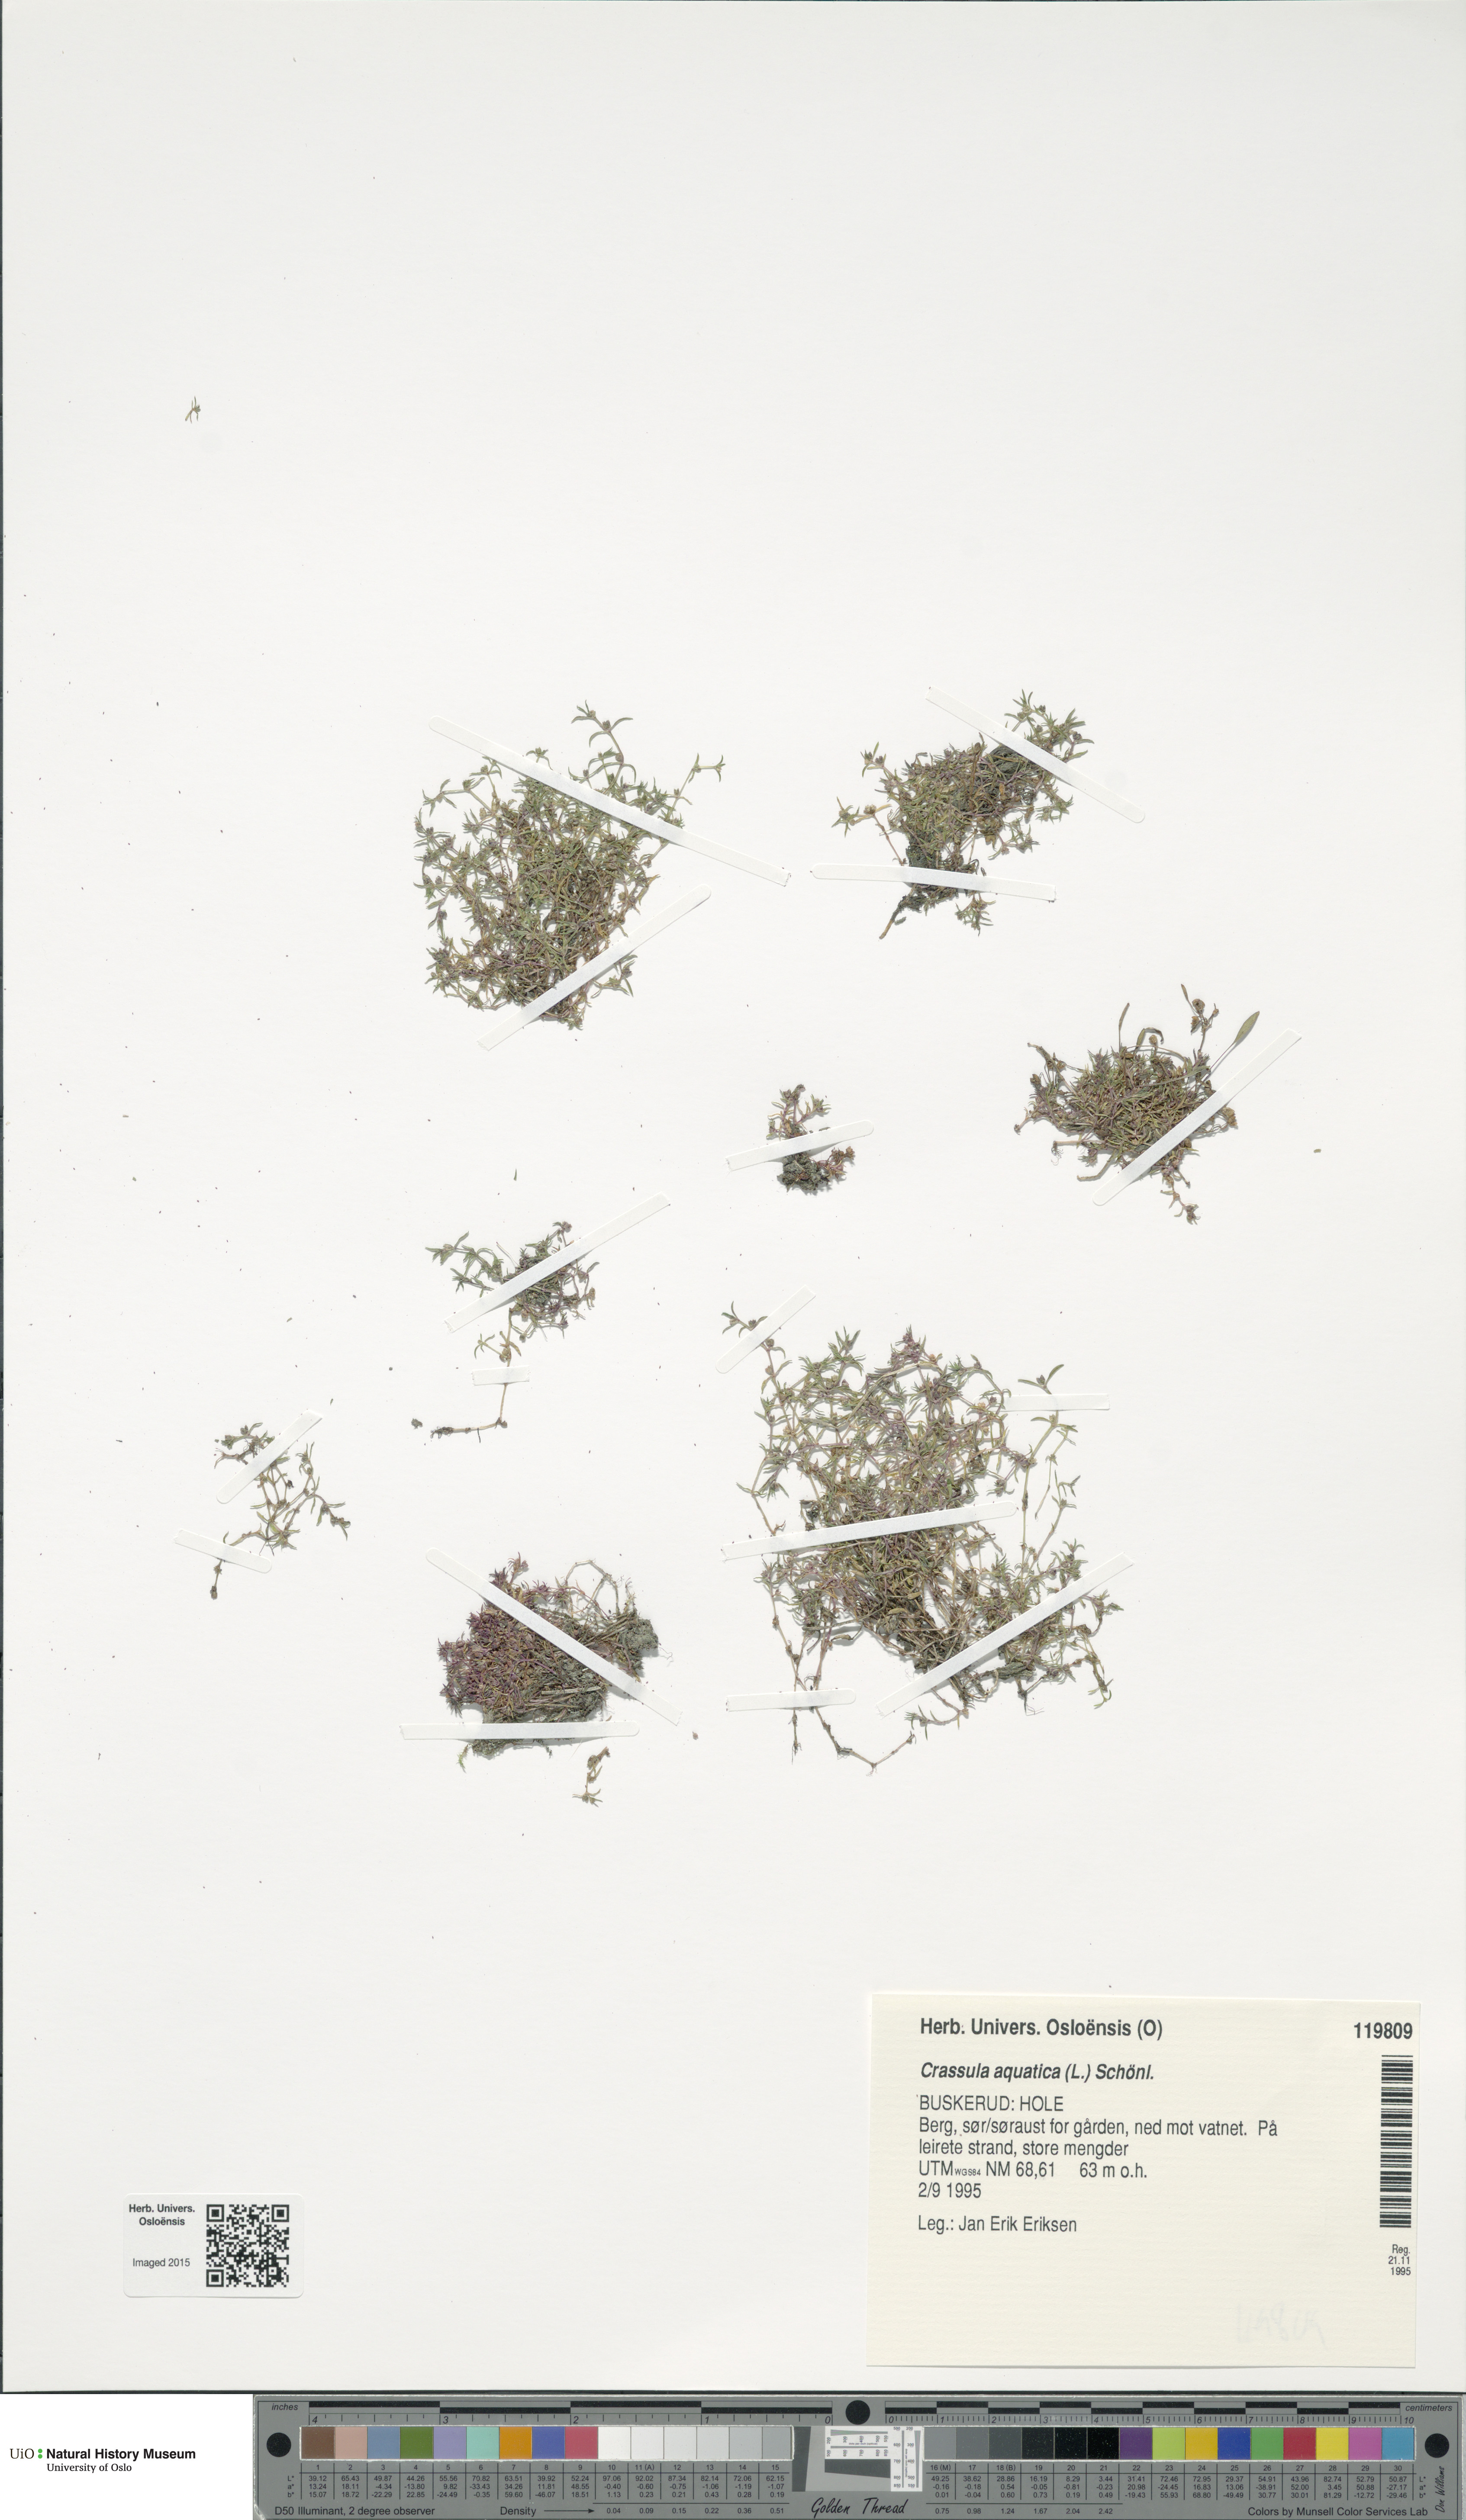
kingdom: Plantae
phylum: Tracheophyta
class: Magnoliopsida
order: Saxifragales
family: Crassulaceae
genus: Crassula
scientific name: Crassula aquatica
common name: Pigmyweed
